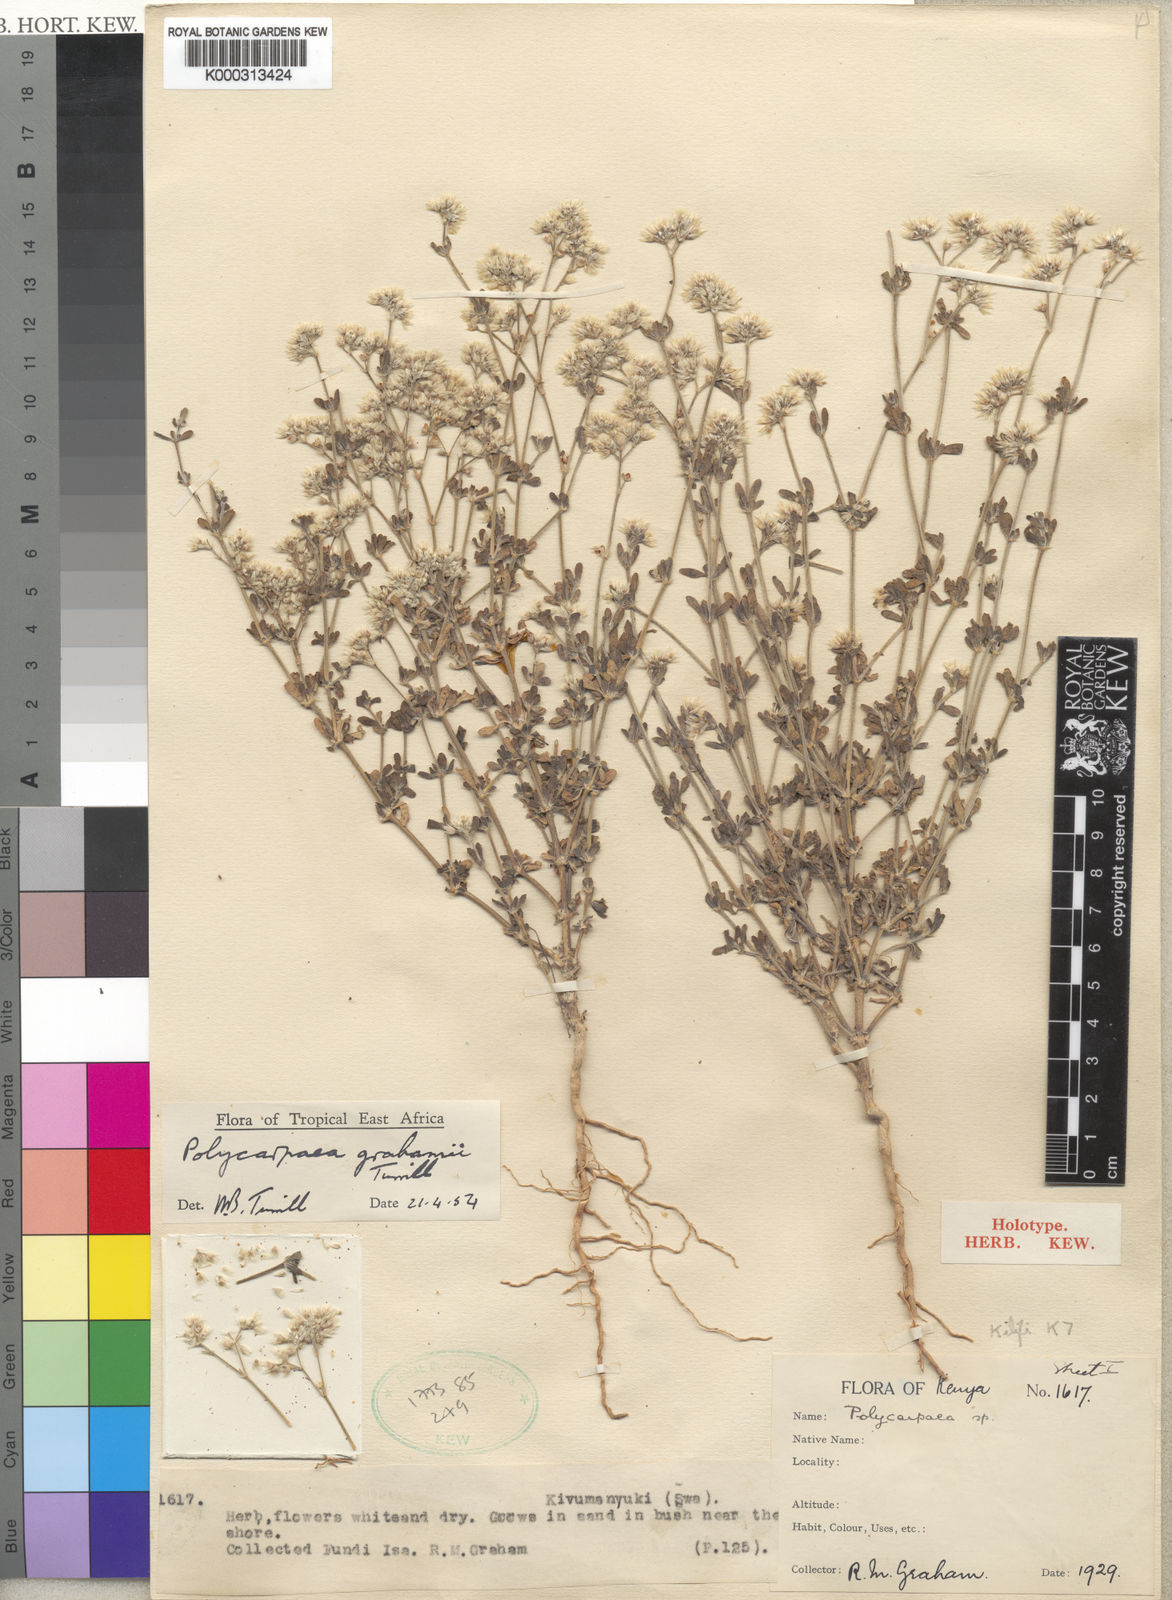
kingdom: Plantae
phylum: Tracheophyta
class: Magnoliopsida
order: Caryophyllales
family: Caryophyllaceae
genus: Polycarpaea
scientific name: Polycarpaea grahamii
